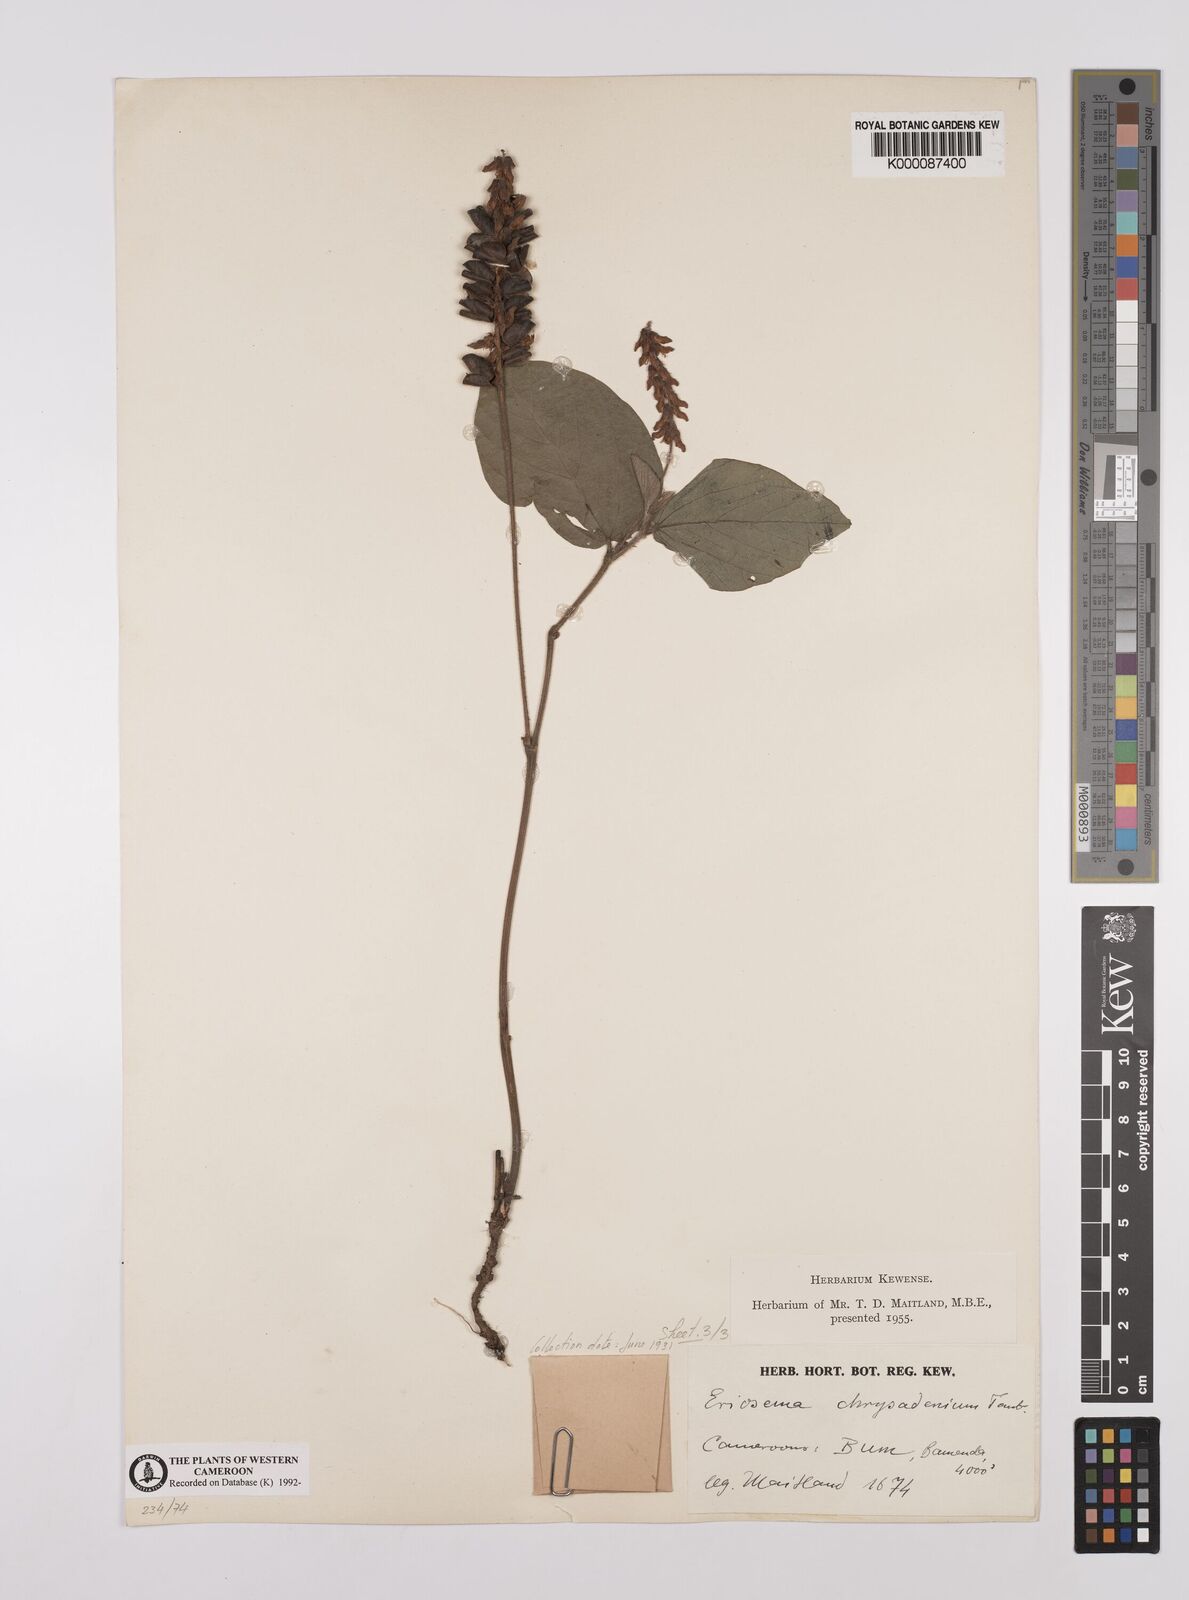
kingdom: Plantae
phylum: Tracheophyta
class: Magnoliopsida
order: Fabales
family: Fabaceae
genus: Eriosema
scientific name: Eriosema chrysadenium
